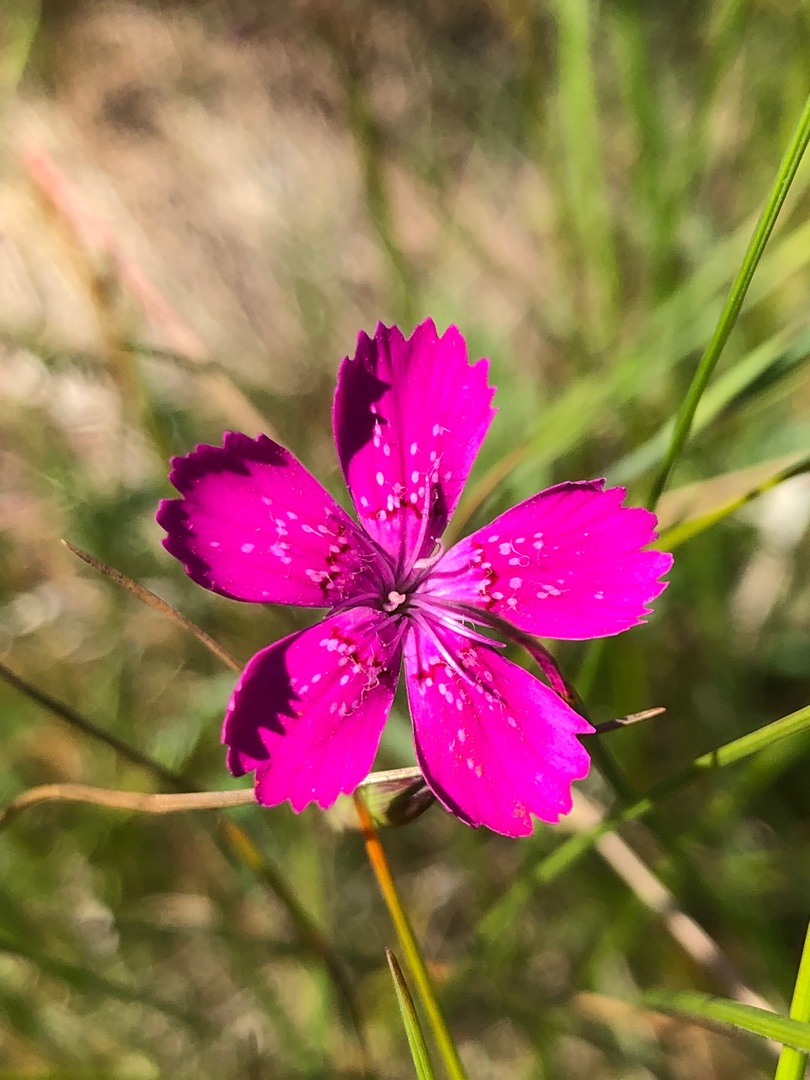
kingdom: Plantae
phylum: Tracheophyta
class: Magnoliopsida
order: Caryophyllales
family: Caryophyllaceae
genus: Dianthus
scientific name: Dianthus deltoides
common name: Bakke-nellike
